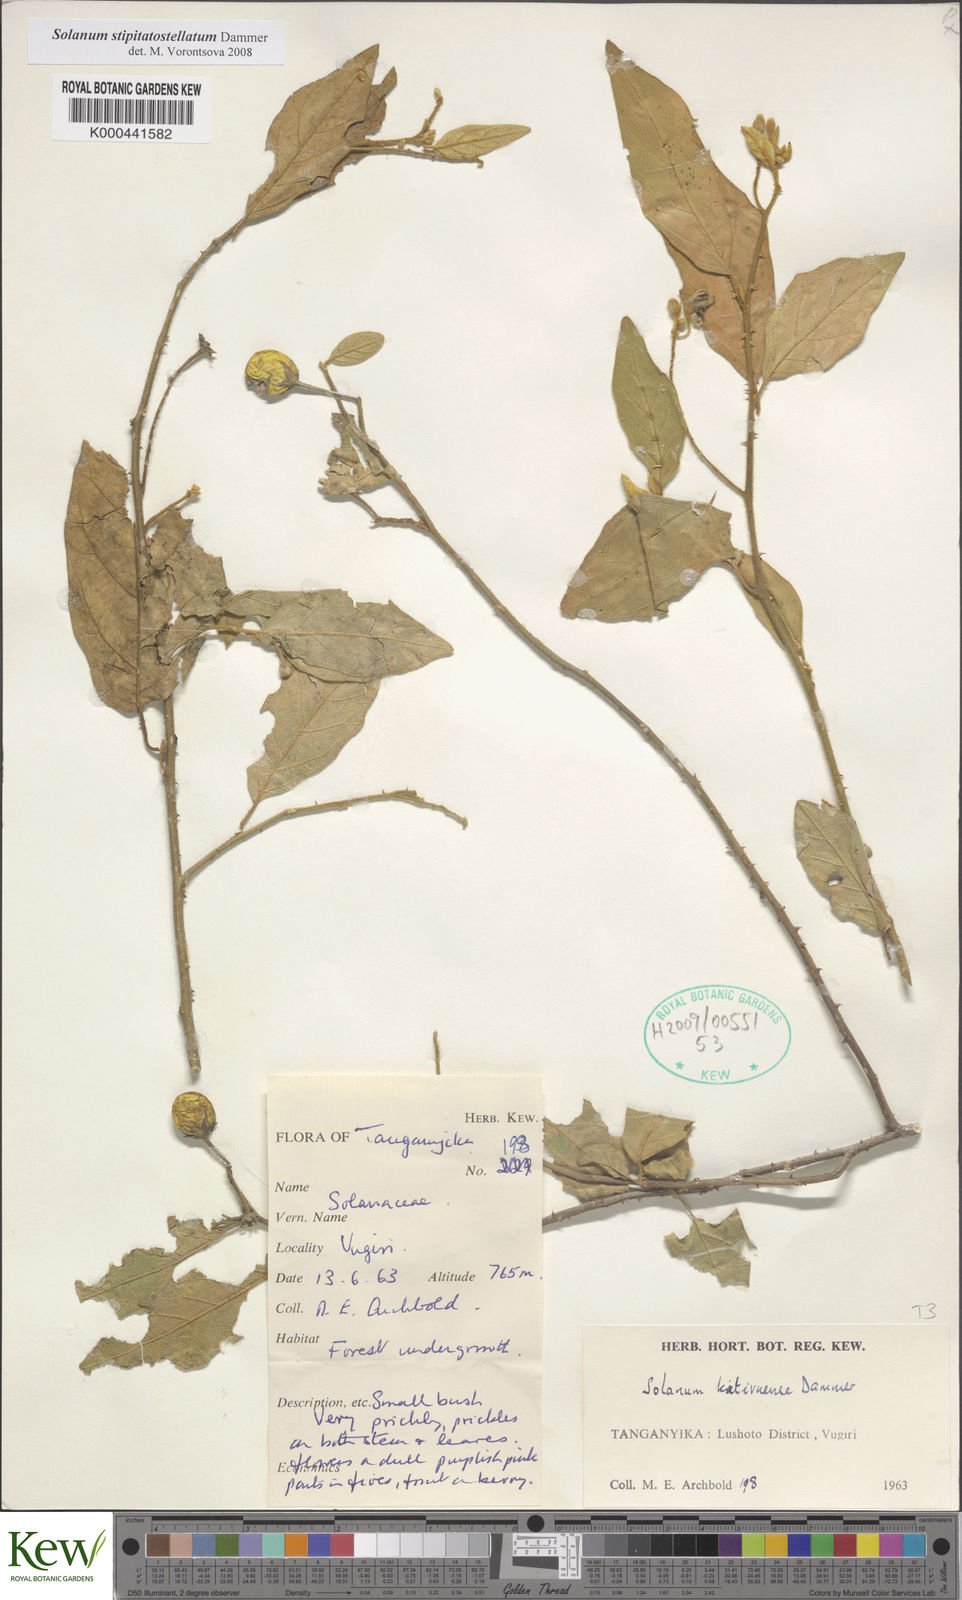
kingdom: Plantae
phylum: Tracheophyta
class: Magnoliopsida
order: Solanales
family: Solanaceae
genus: Solanum
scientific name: Solanum stipitatostellatum
